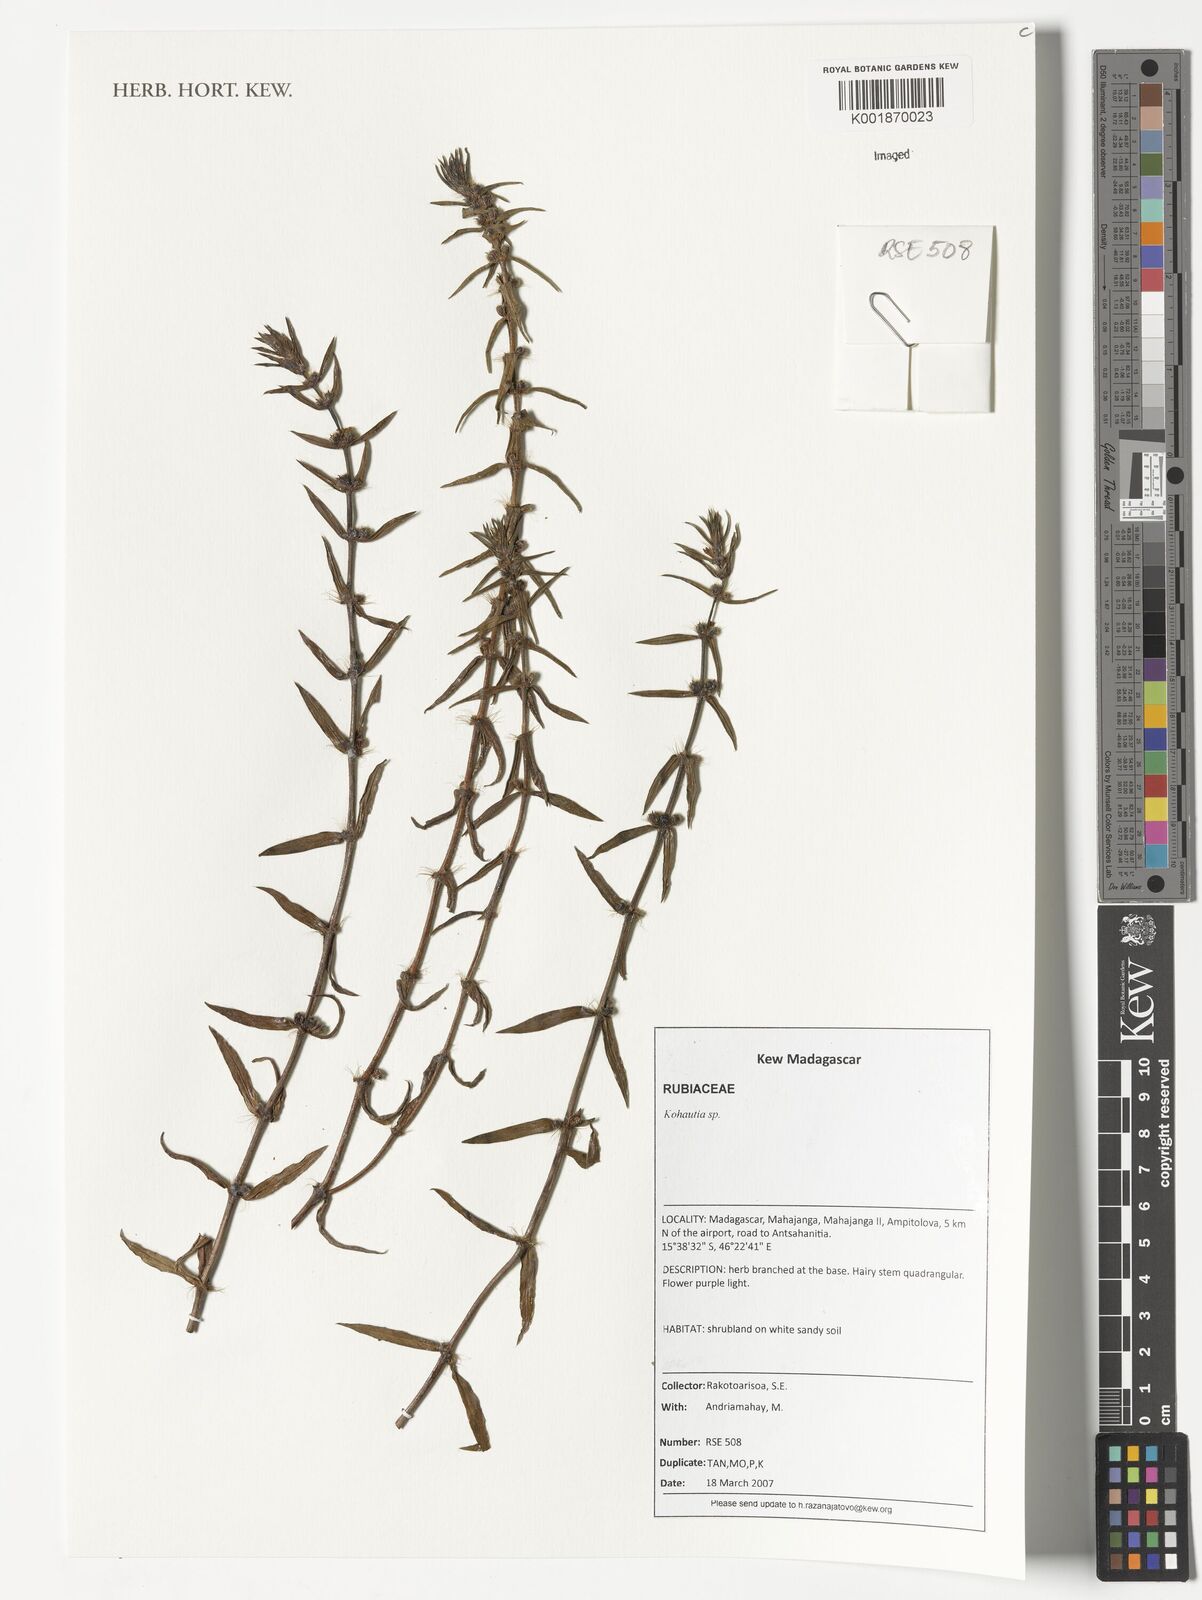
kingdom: Plantae
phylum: Tracheophyta
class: Magnoliopsida
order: Gentianales
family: Rubiaceae
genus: Kohautia
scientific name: Kohautia
